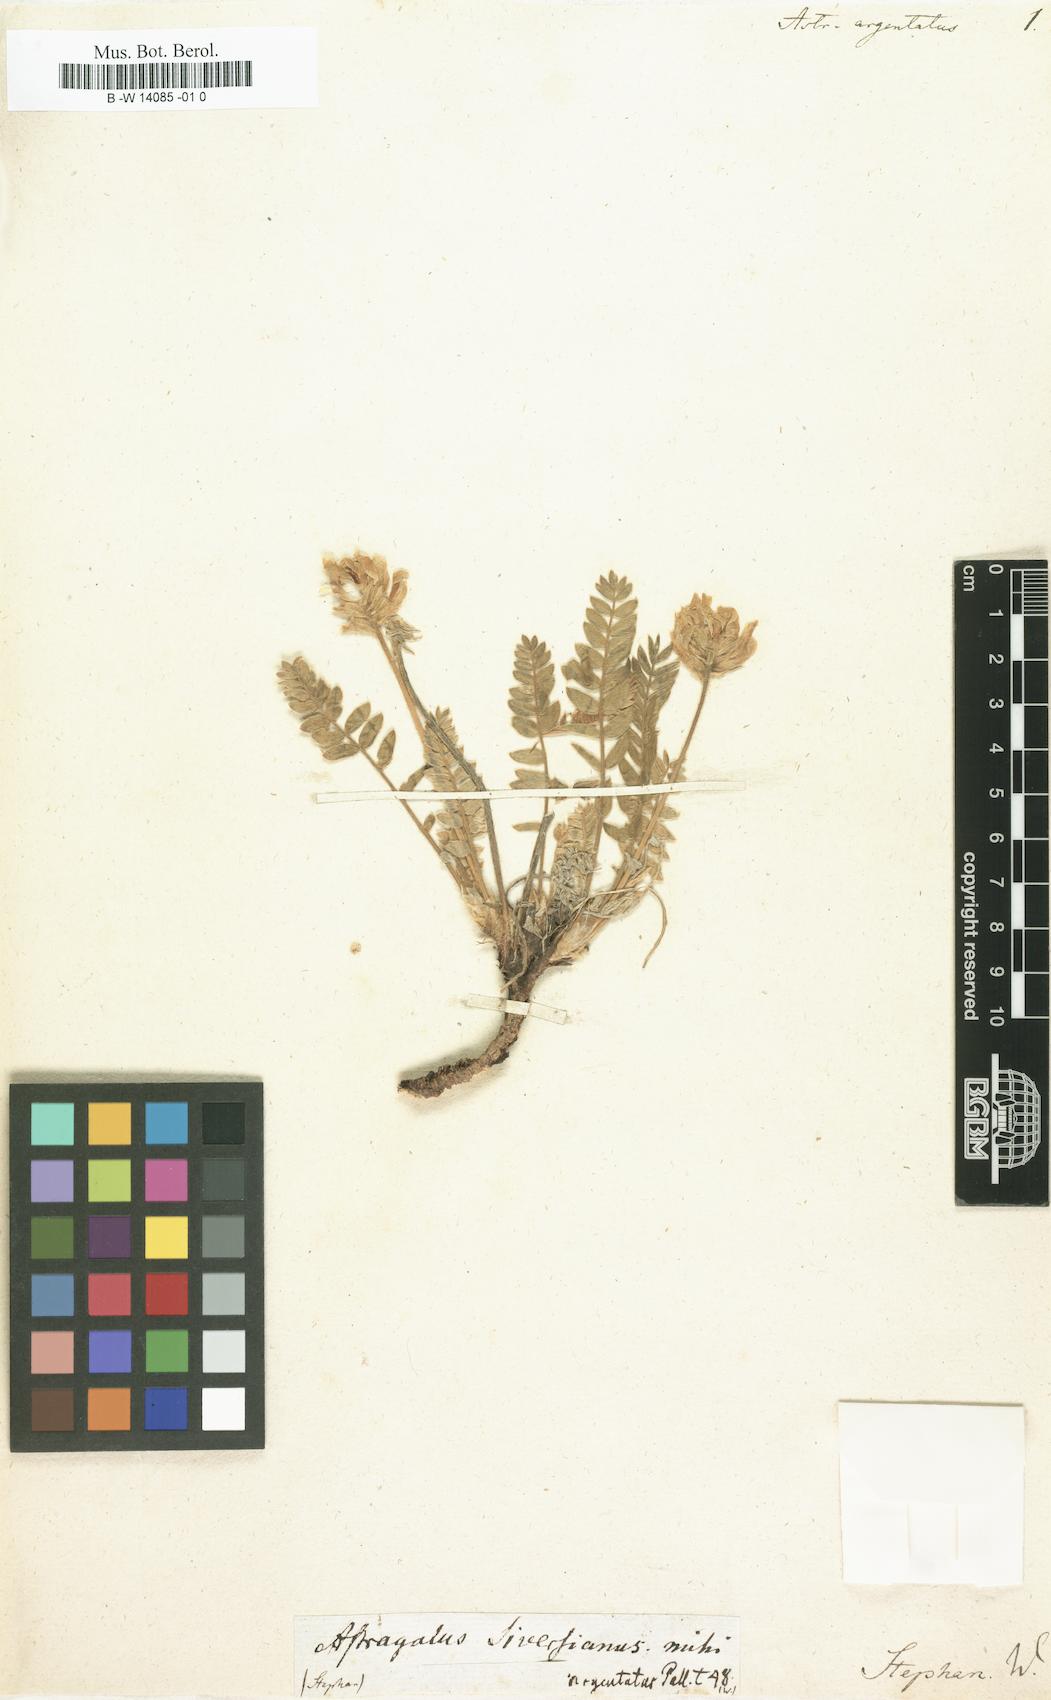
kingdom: Plantae
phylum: Tracheophyta
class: Magnoliopsida
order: Fabales
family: Fabaceae
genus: Oxytropis
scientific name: Oxytropis argentata
